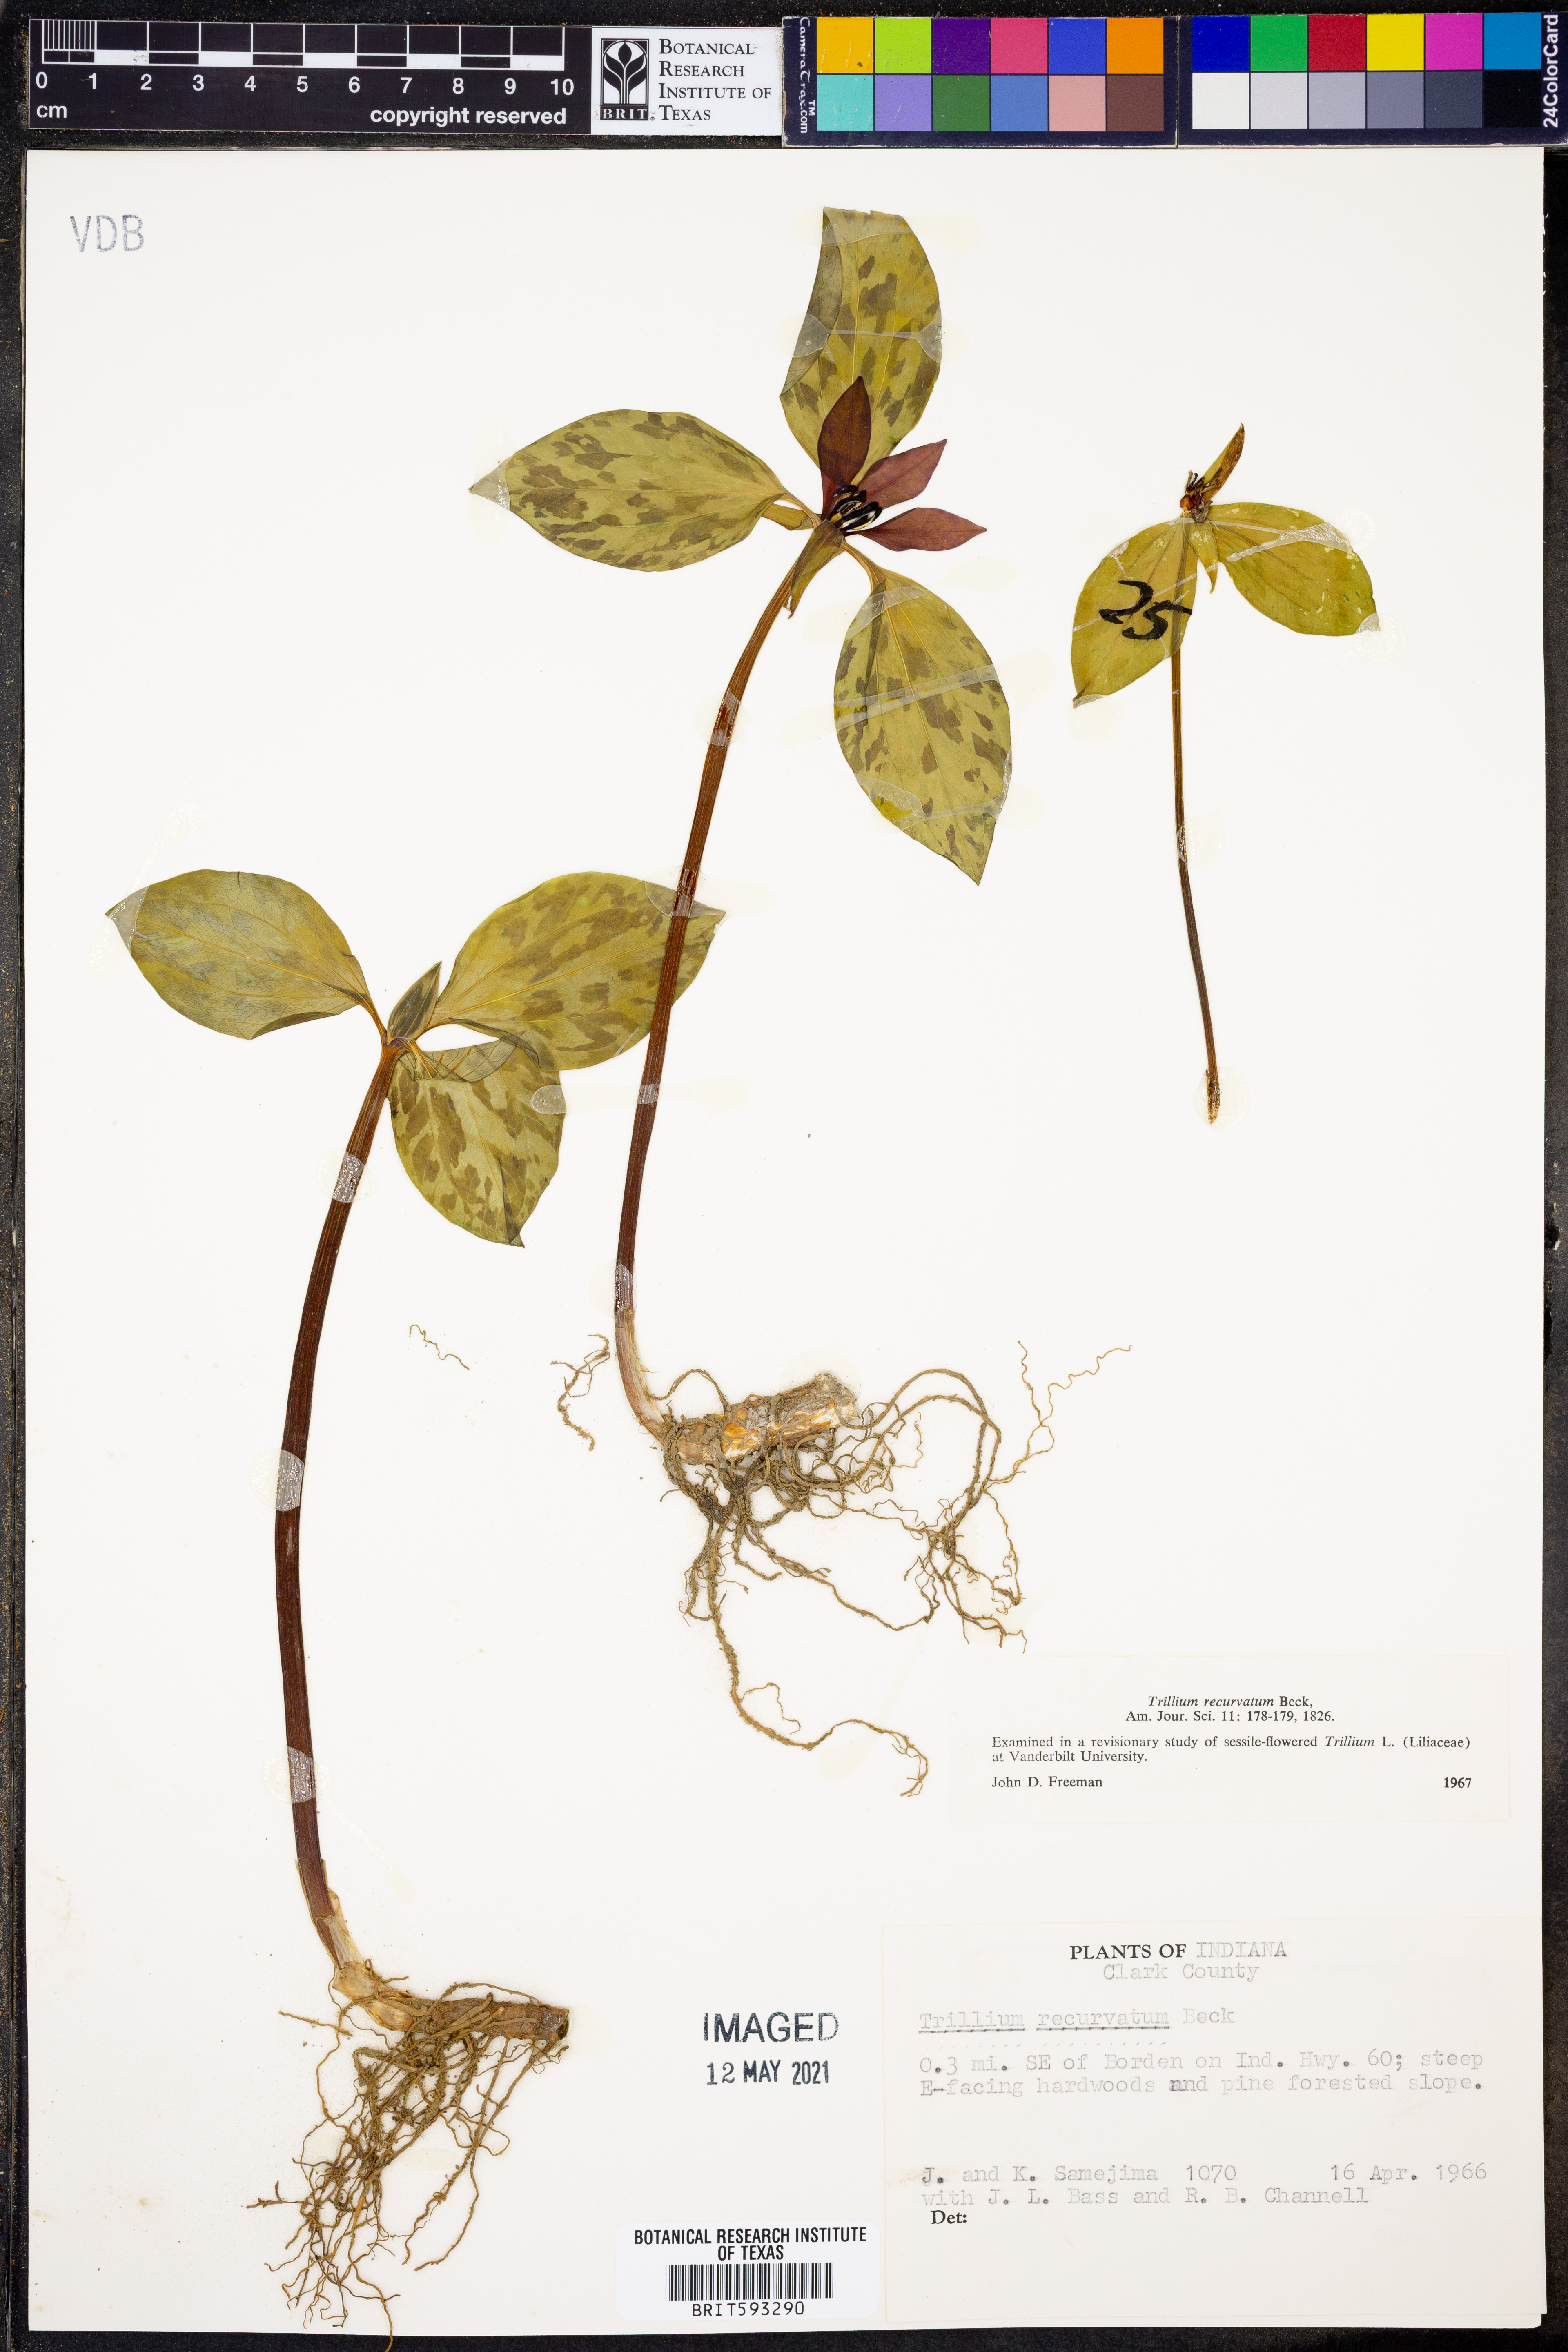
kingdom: Plantae
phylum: Tracheophyta
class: Liliopsida
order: Liliales
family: Melanthiaceae
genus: Trillium
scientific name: Trillium recurvatum
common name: Bloody butcher
